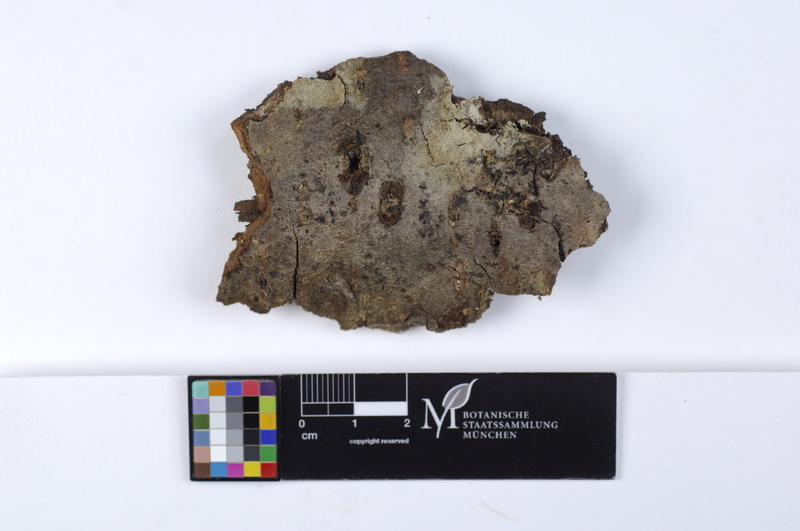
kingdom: Fungi
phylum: Basidiomycota
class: Agaricomycetes
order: Cantharellales
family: Botryobasidiaceae
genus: Botryobasidium
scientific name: Botryobasidium candicans
